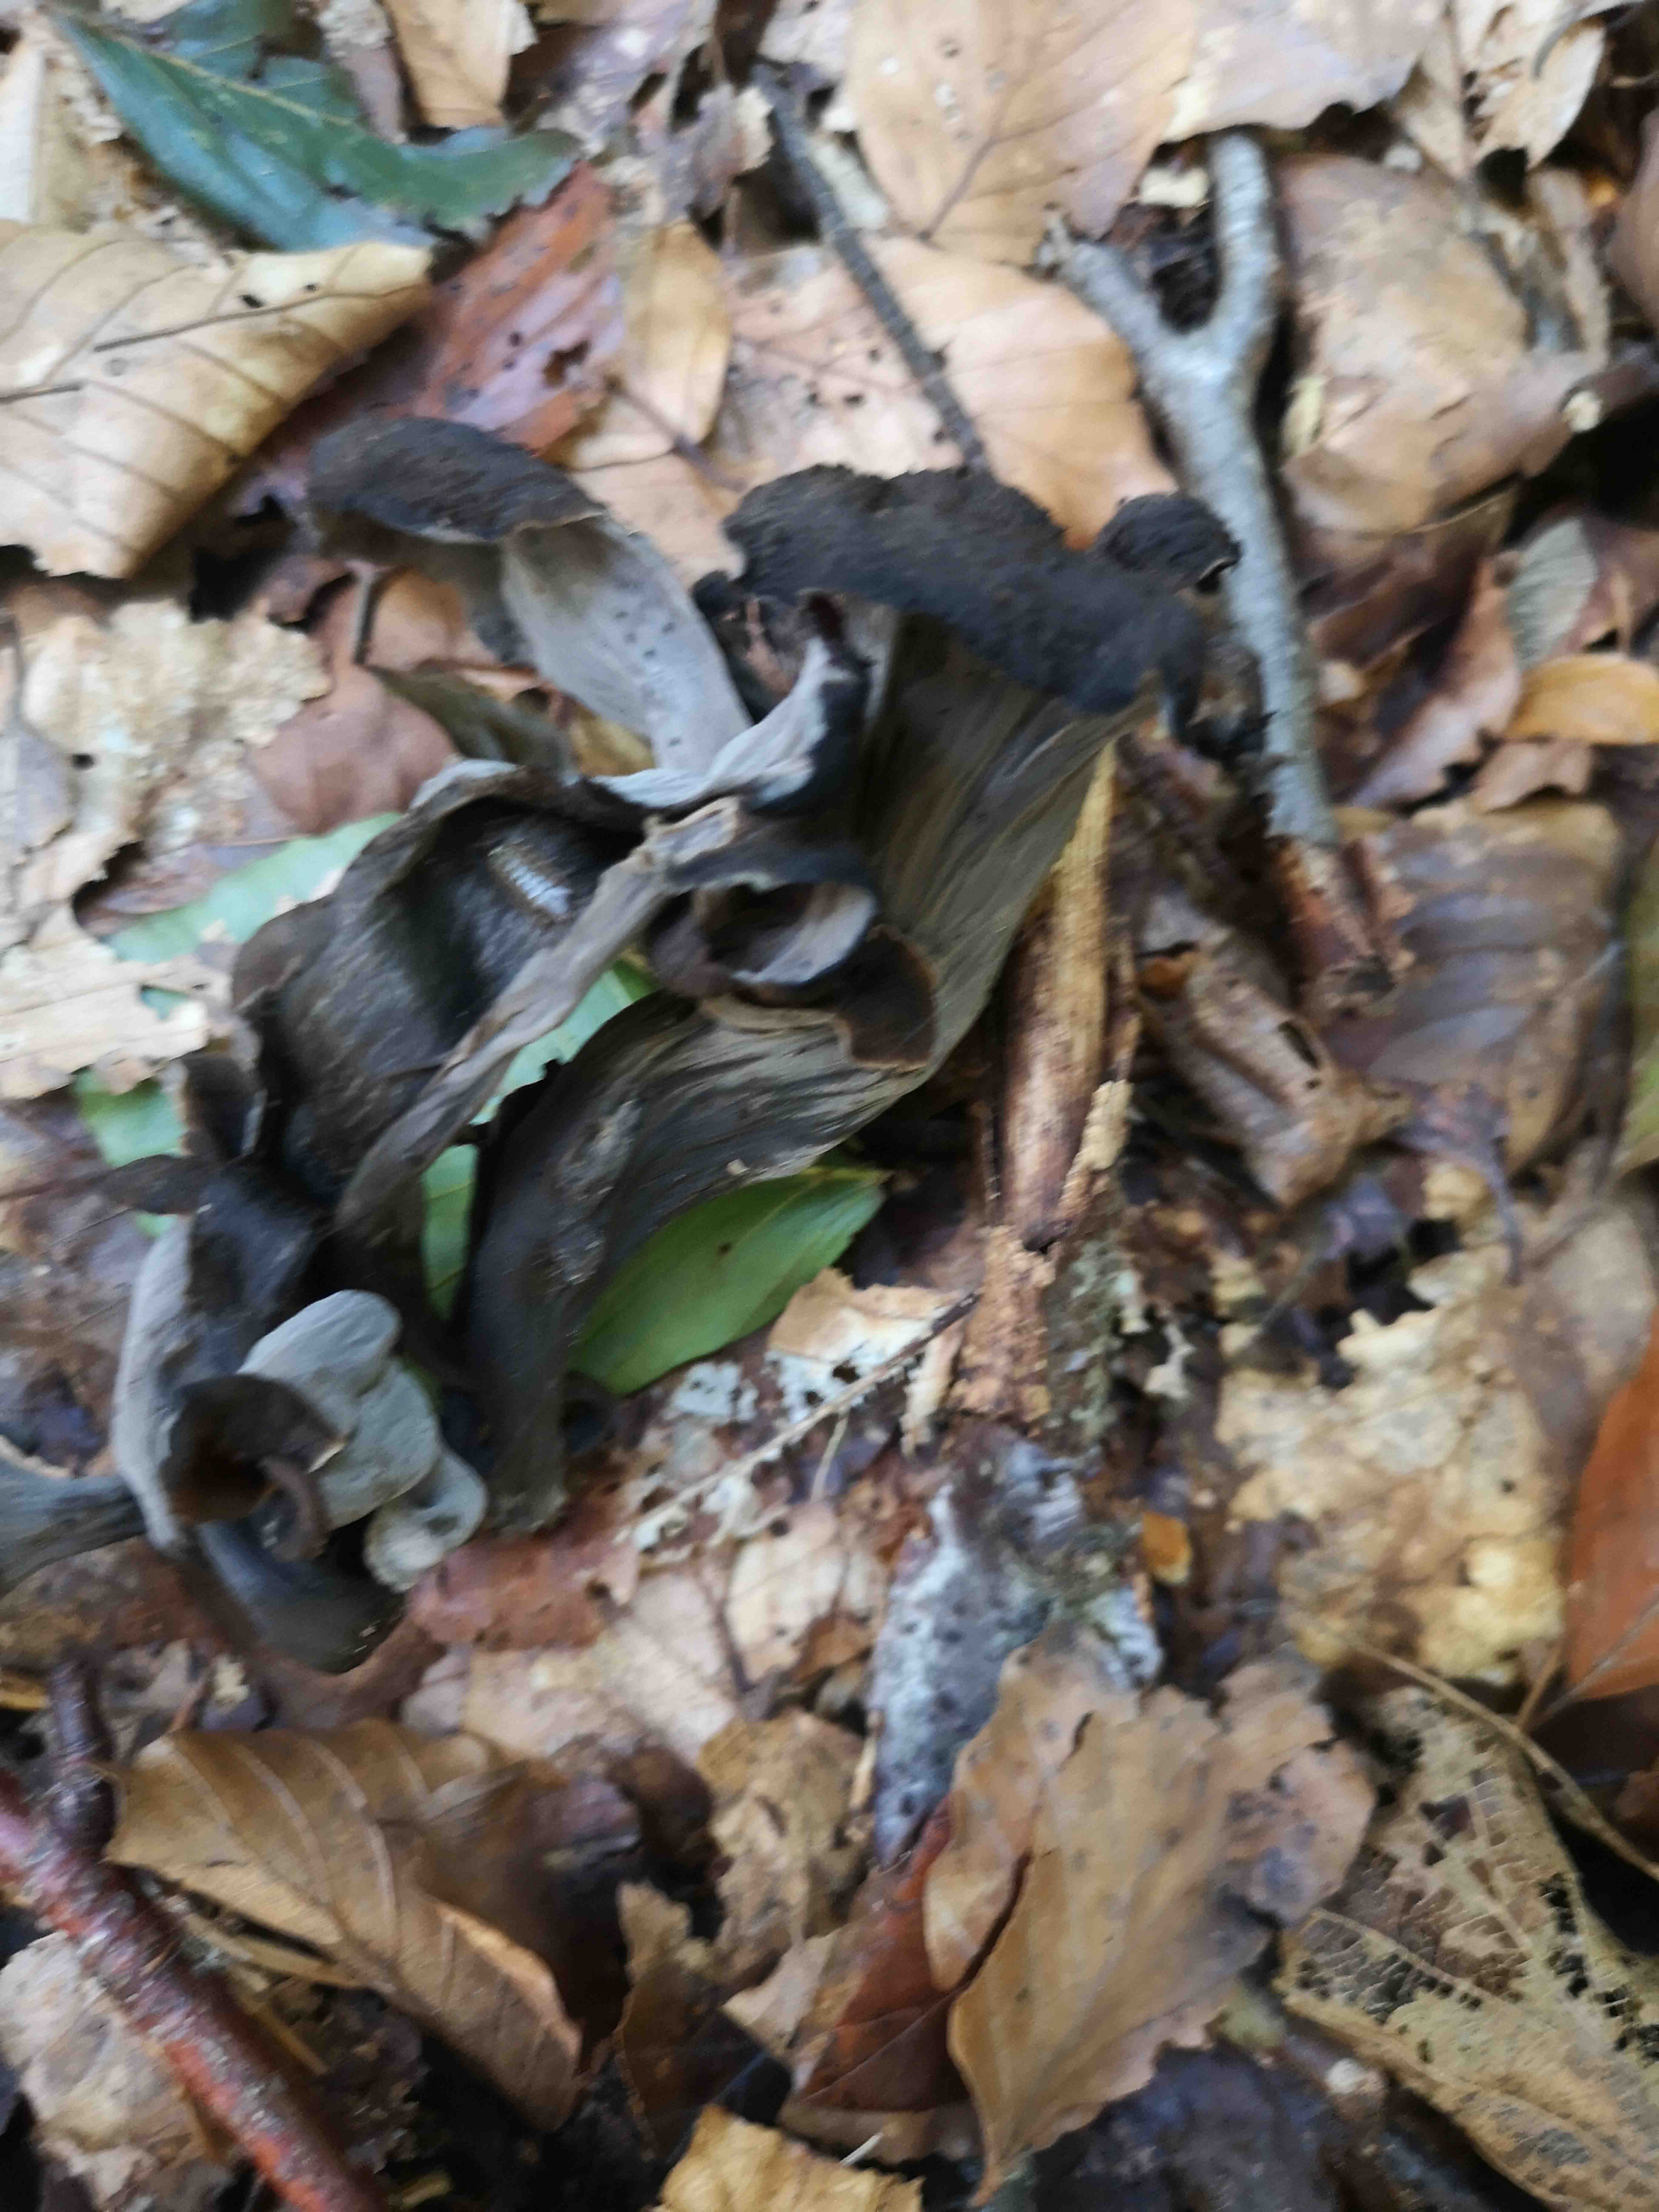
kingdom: Fungi
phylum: Basidiomycota
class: Agaricomycetes
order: Cantharellales
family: Hydnaceae
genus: Craterellus
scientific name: Craterellus cornucopioides
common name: trompetsvamp
